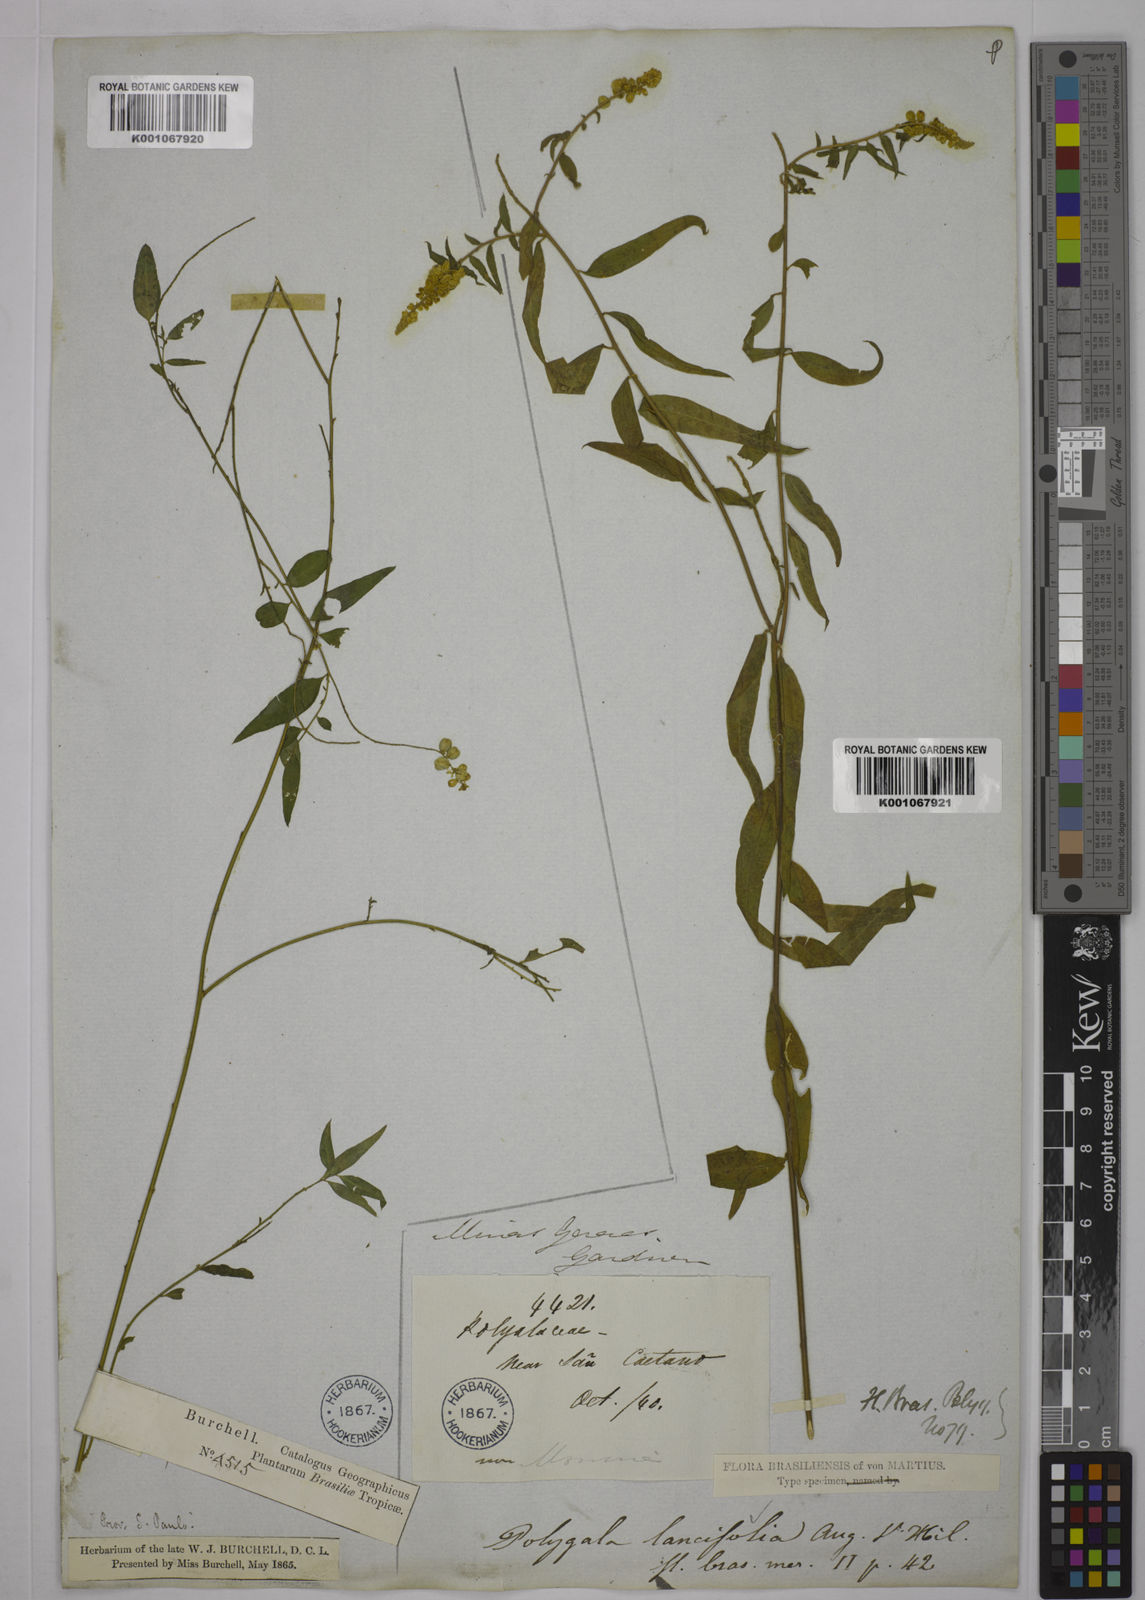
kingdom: Plantae
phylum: Tracheophyta
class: Magnoliopsida
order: Fabales
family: Polygalaceae
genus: Polygala
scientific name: Polygala lancifolia
